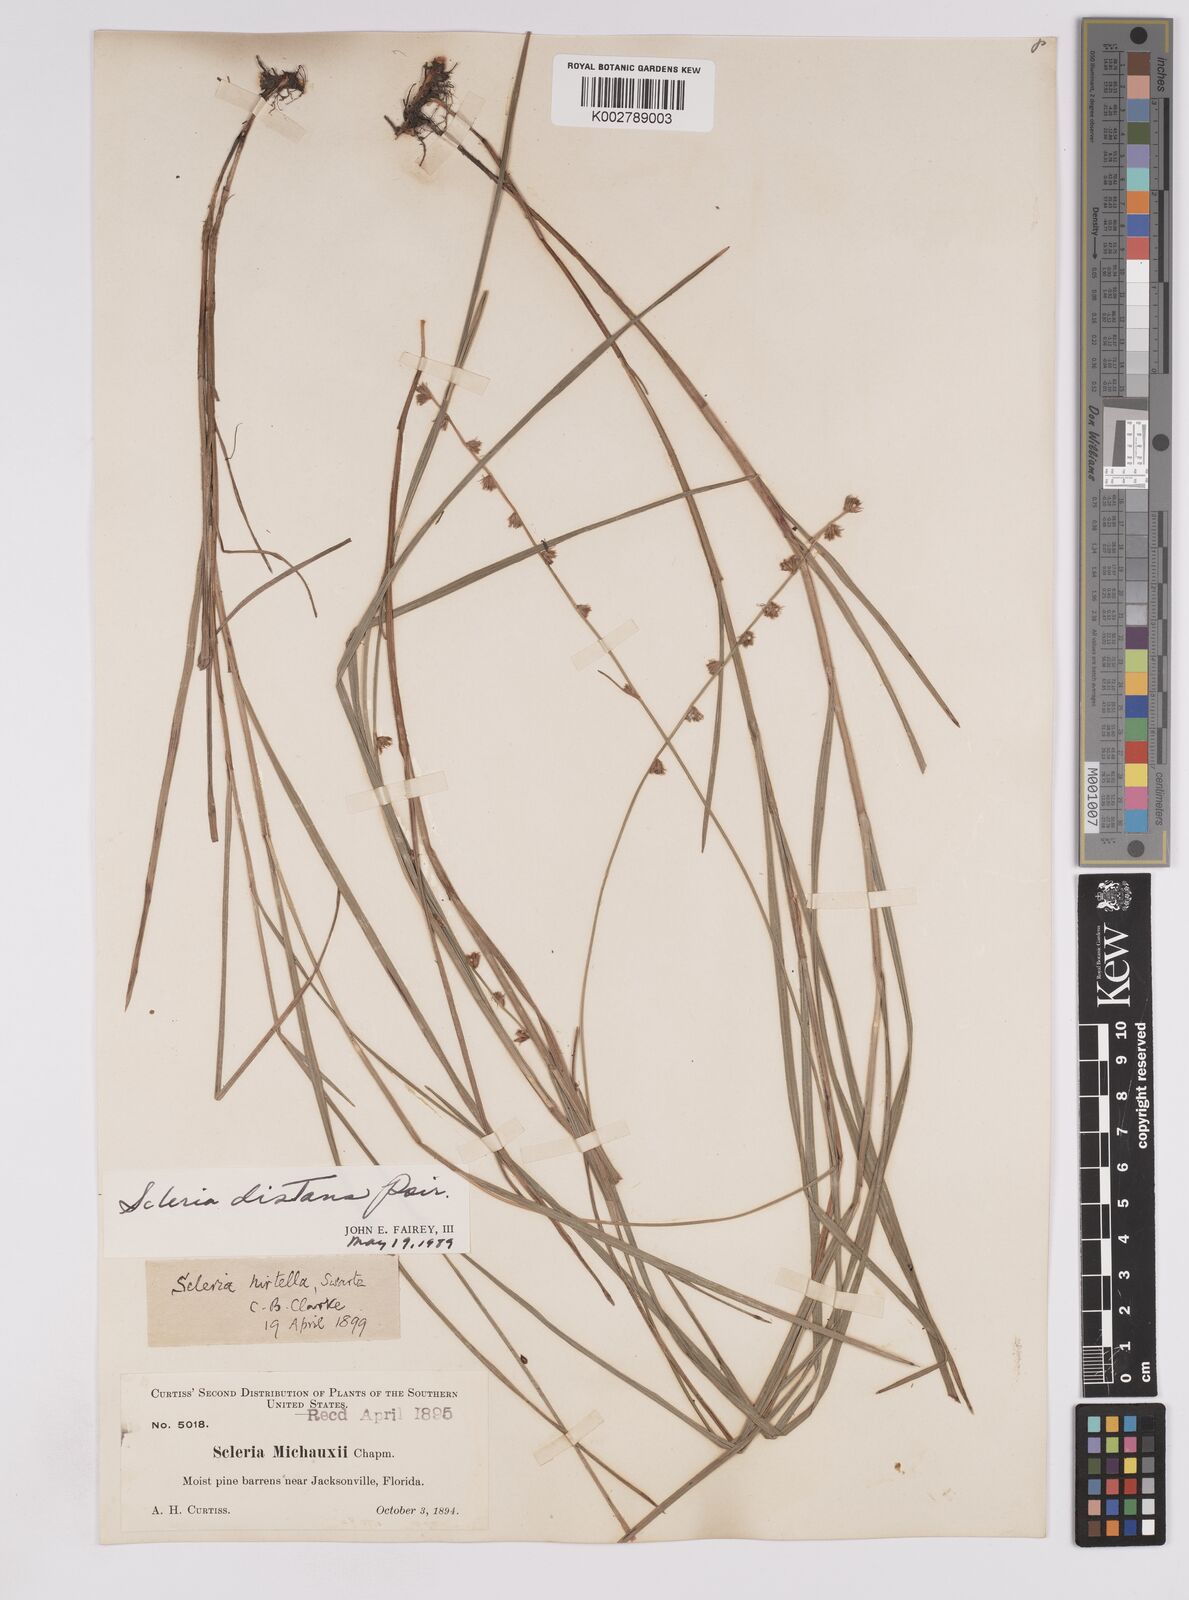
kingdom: Plantae
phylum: Tracheophyta
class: Liliopsida
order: Poales
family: Cyperaceae
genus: Scleria
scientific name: Scleria distans
